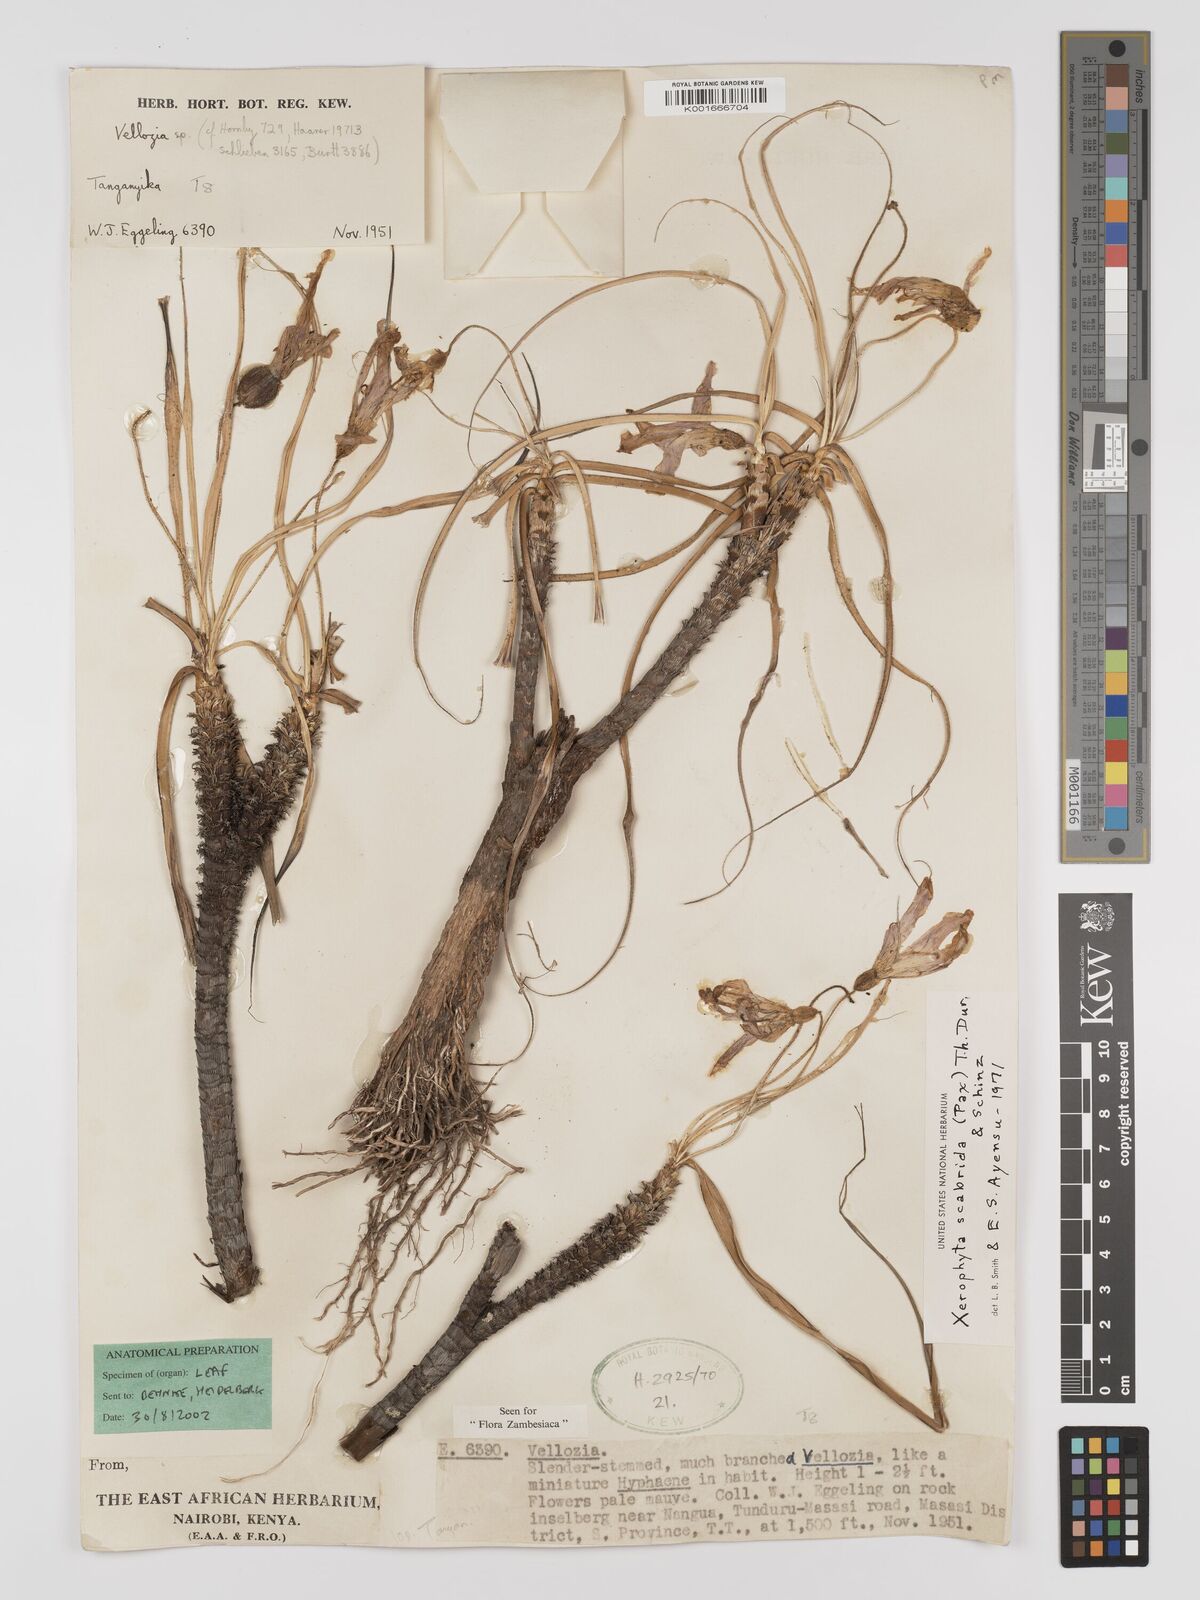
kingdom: Plantae
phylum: Tracheophyta
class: Liliopsida
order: Pandanales
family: Velloziaceae
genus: Xerophyta
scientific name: Xerophyta scabrida
